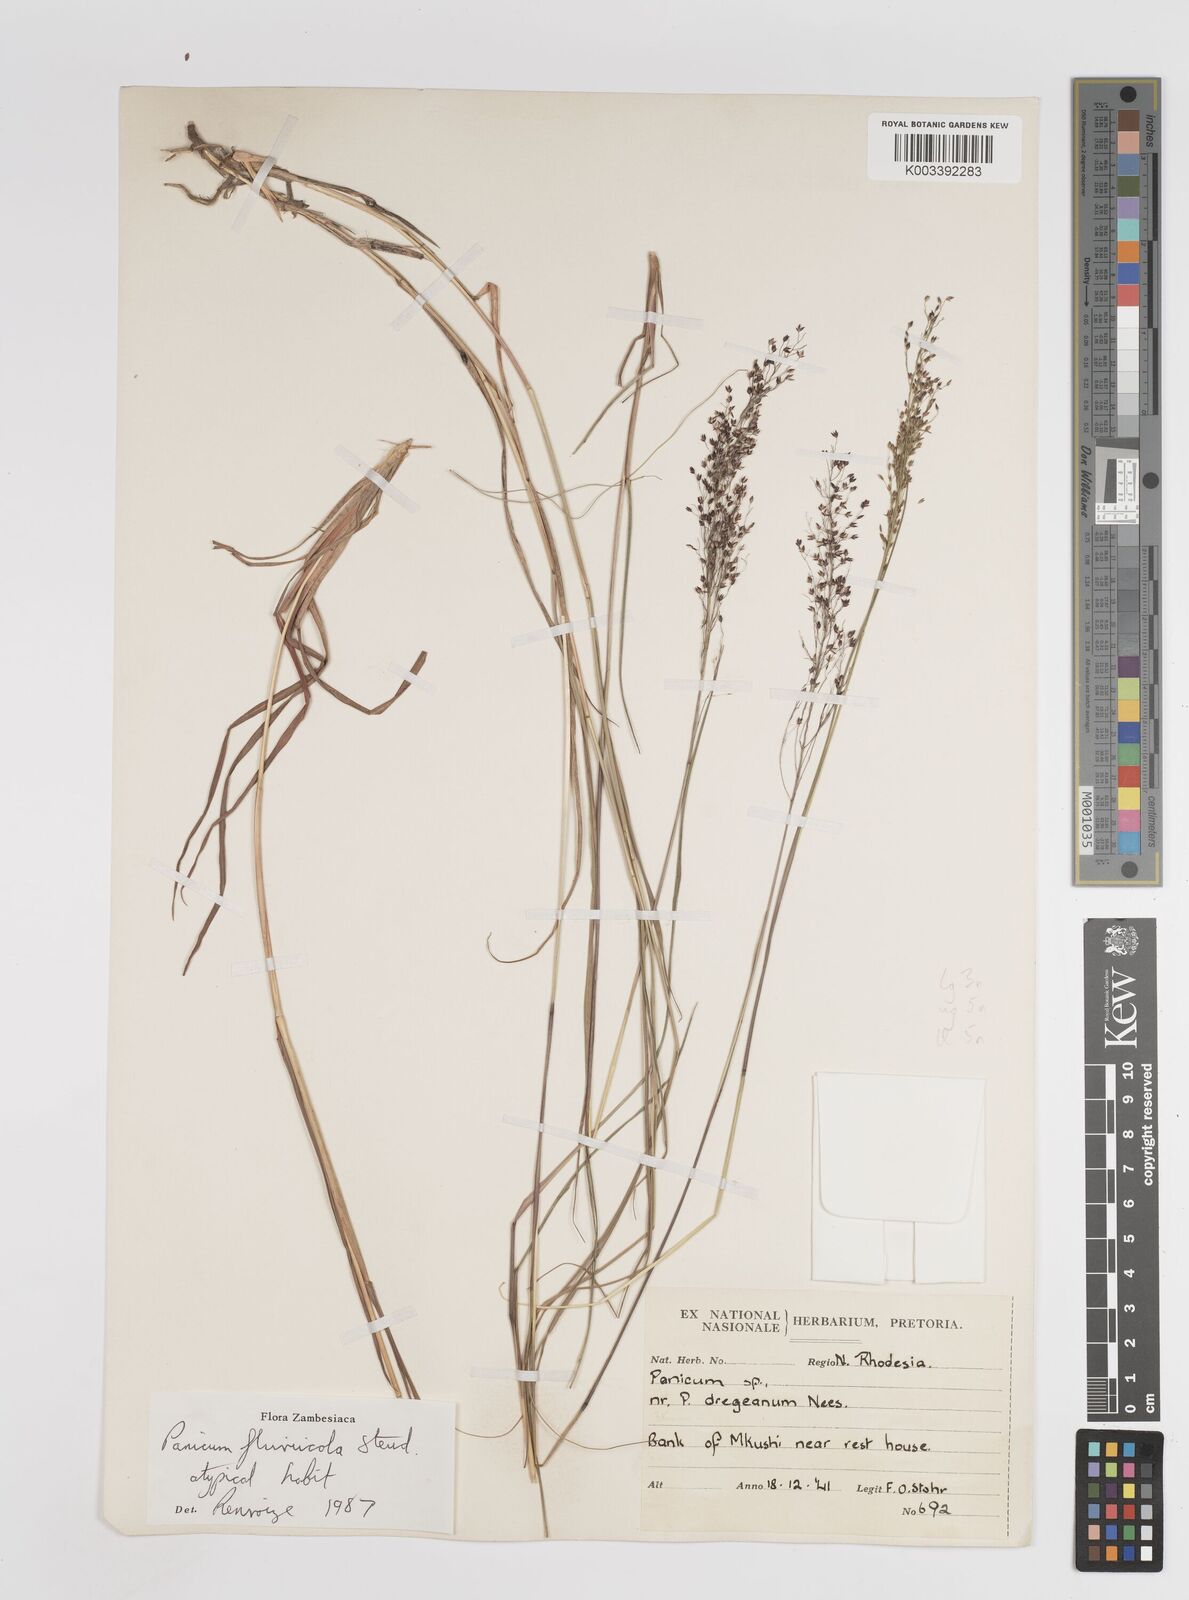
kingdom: Plantae
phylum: Tracheophyta
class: Liliopsida
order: Poales
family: Poaceae
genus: Panicum
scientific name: Panicum fluviicola
